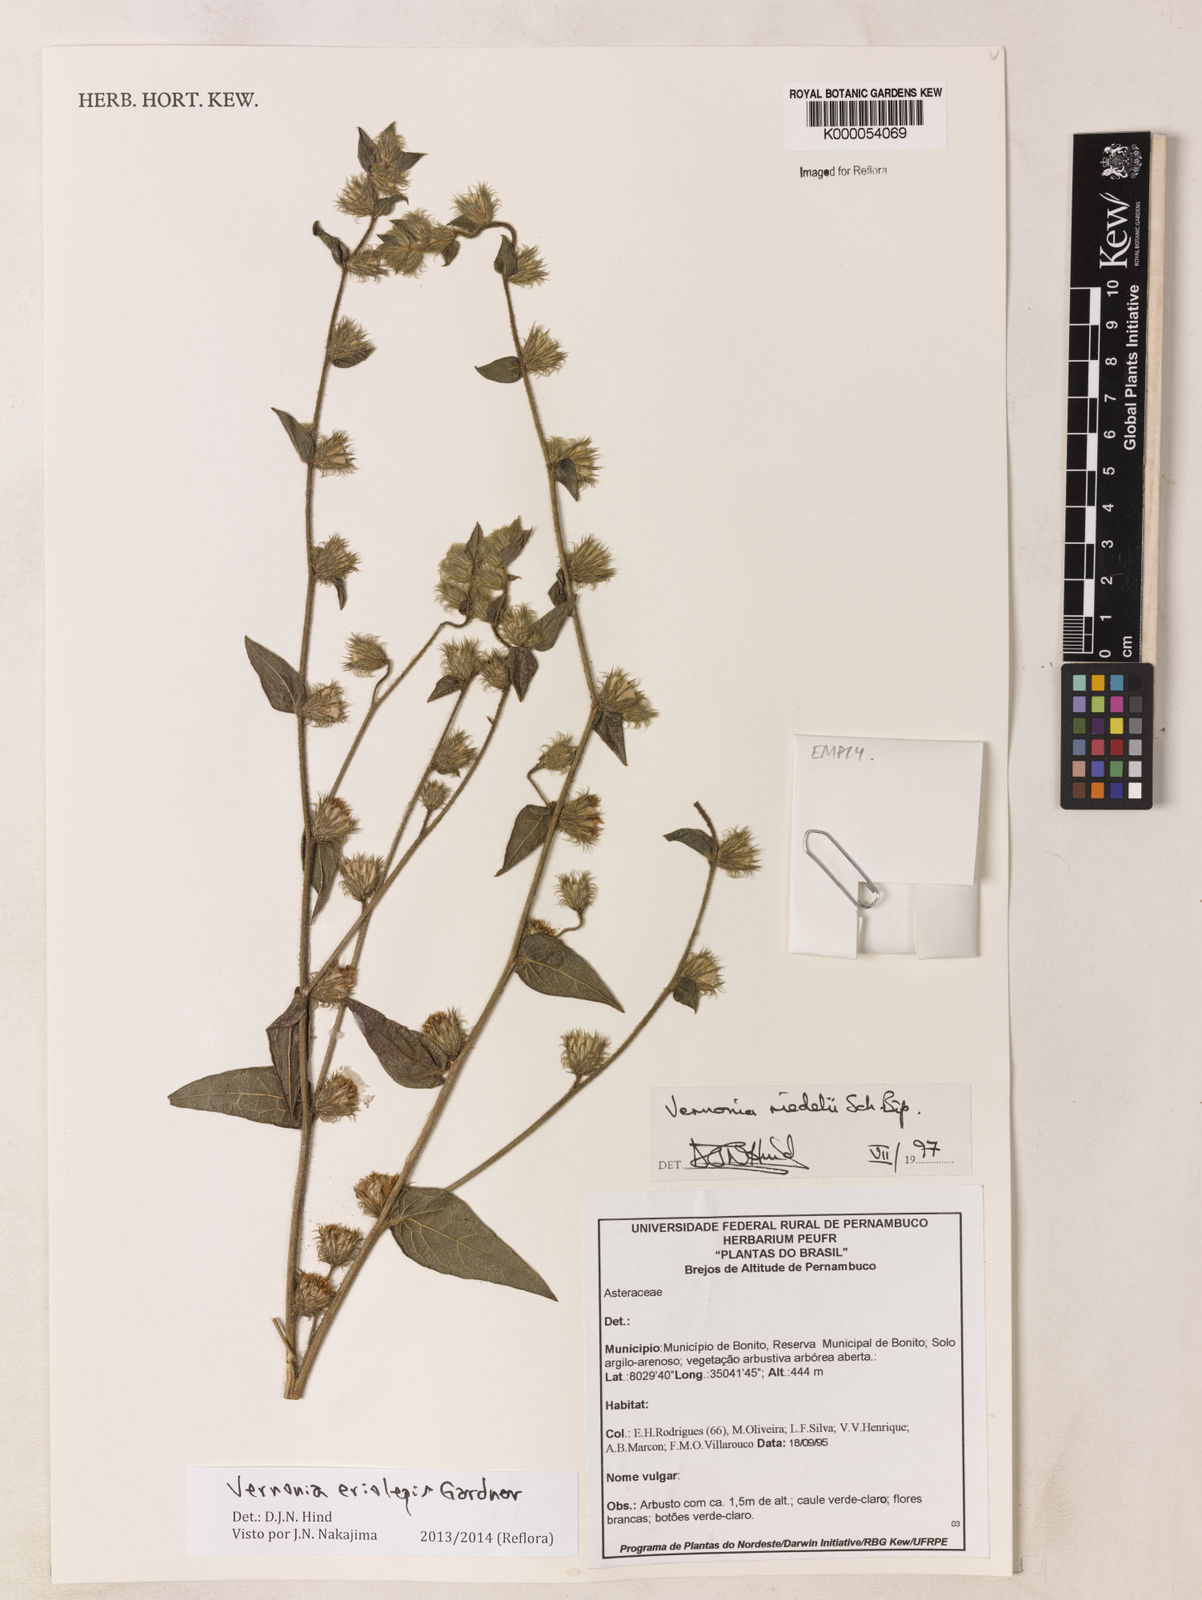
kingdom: Plantae
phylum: Tracheophyta
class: Magnoliopsida
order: Asterales
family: Asteraceae
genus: Vernonia
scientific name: Vernonia
